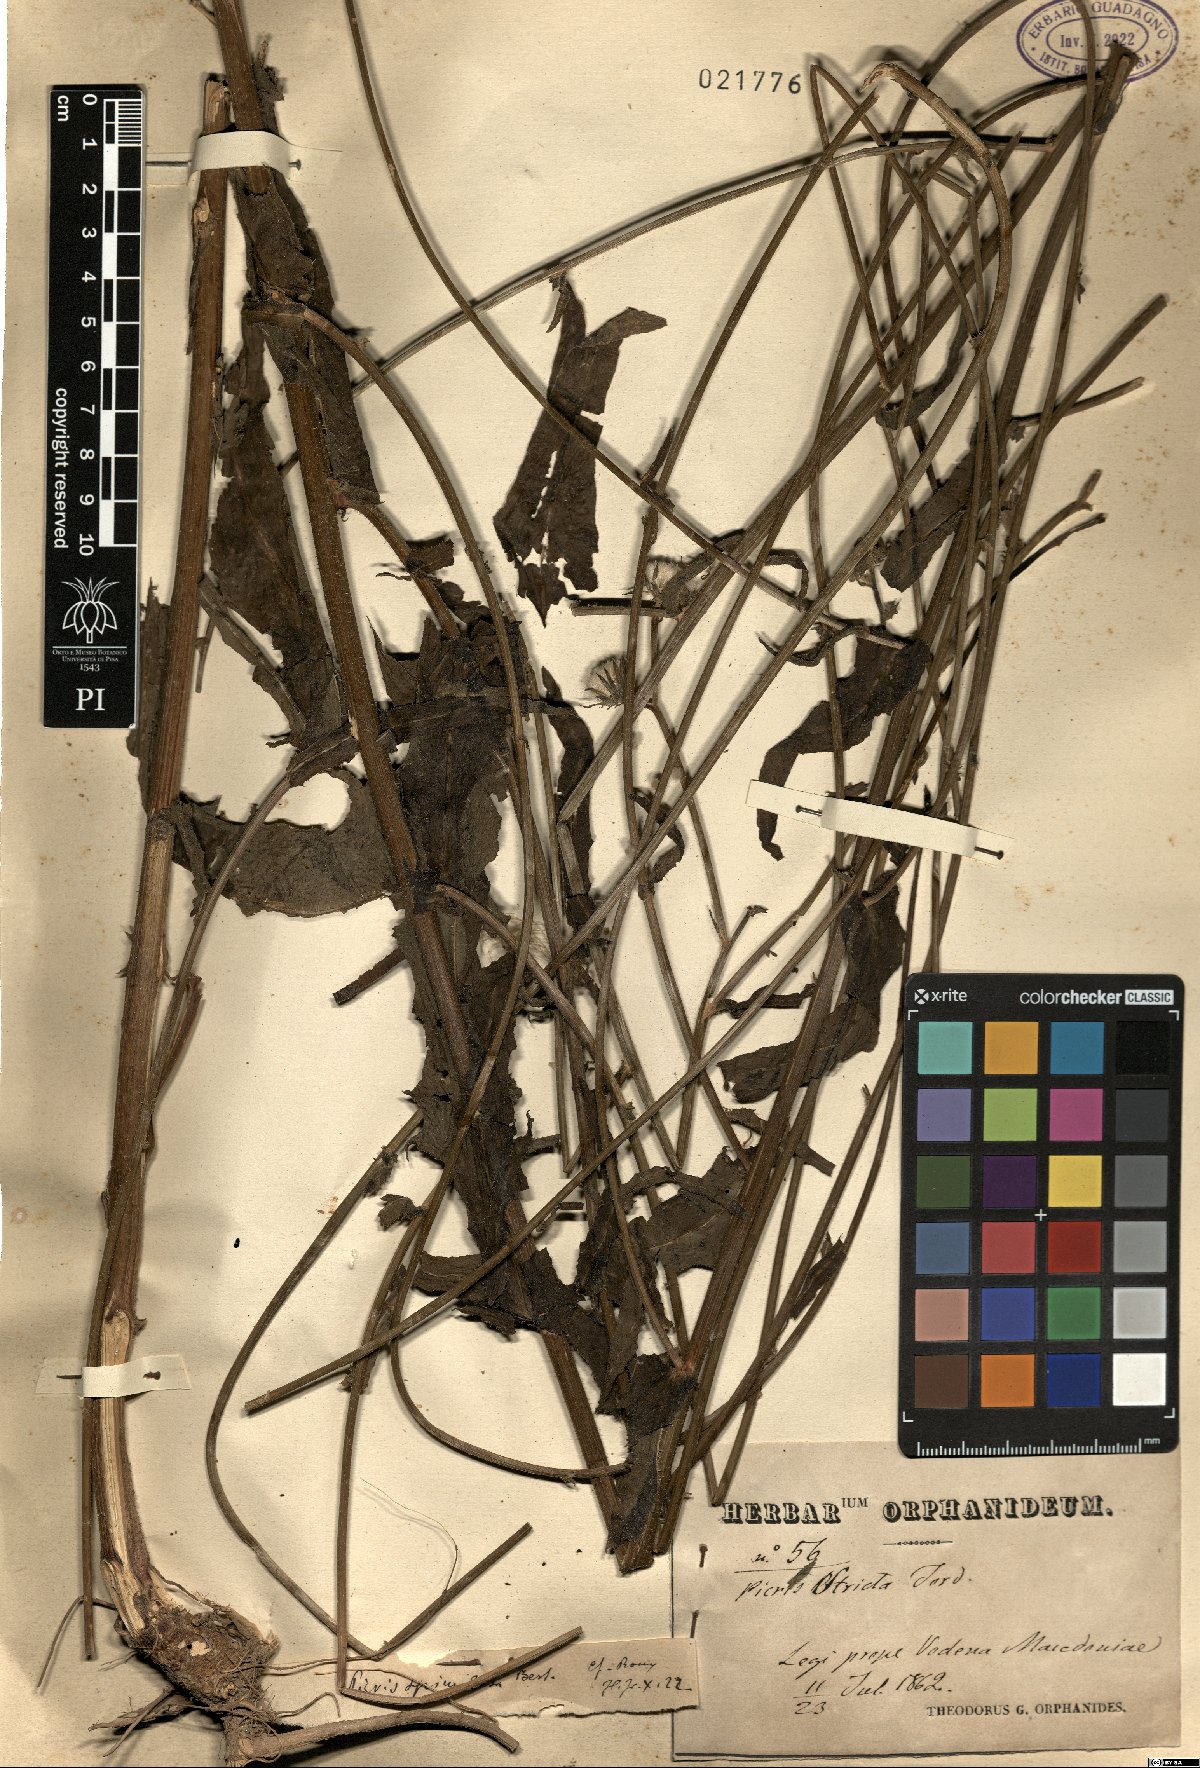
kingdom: Plantae
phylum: Tracheophyta
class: Magnoliopsida
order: Asterales
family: Asteraceae
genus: Picris
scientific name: Picris hieracioides
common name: Hawkweed oxtongue
